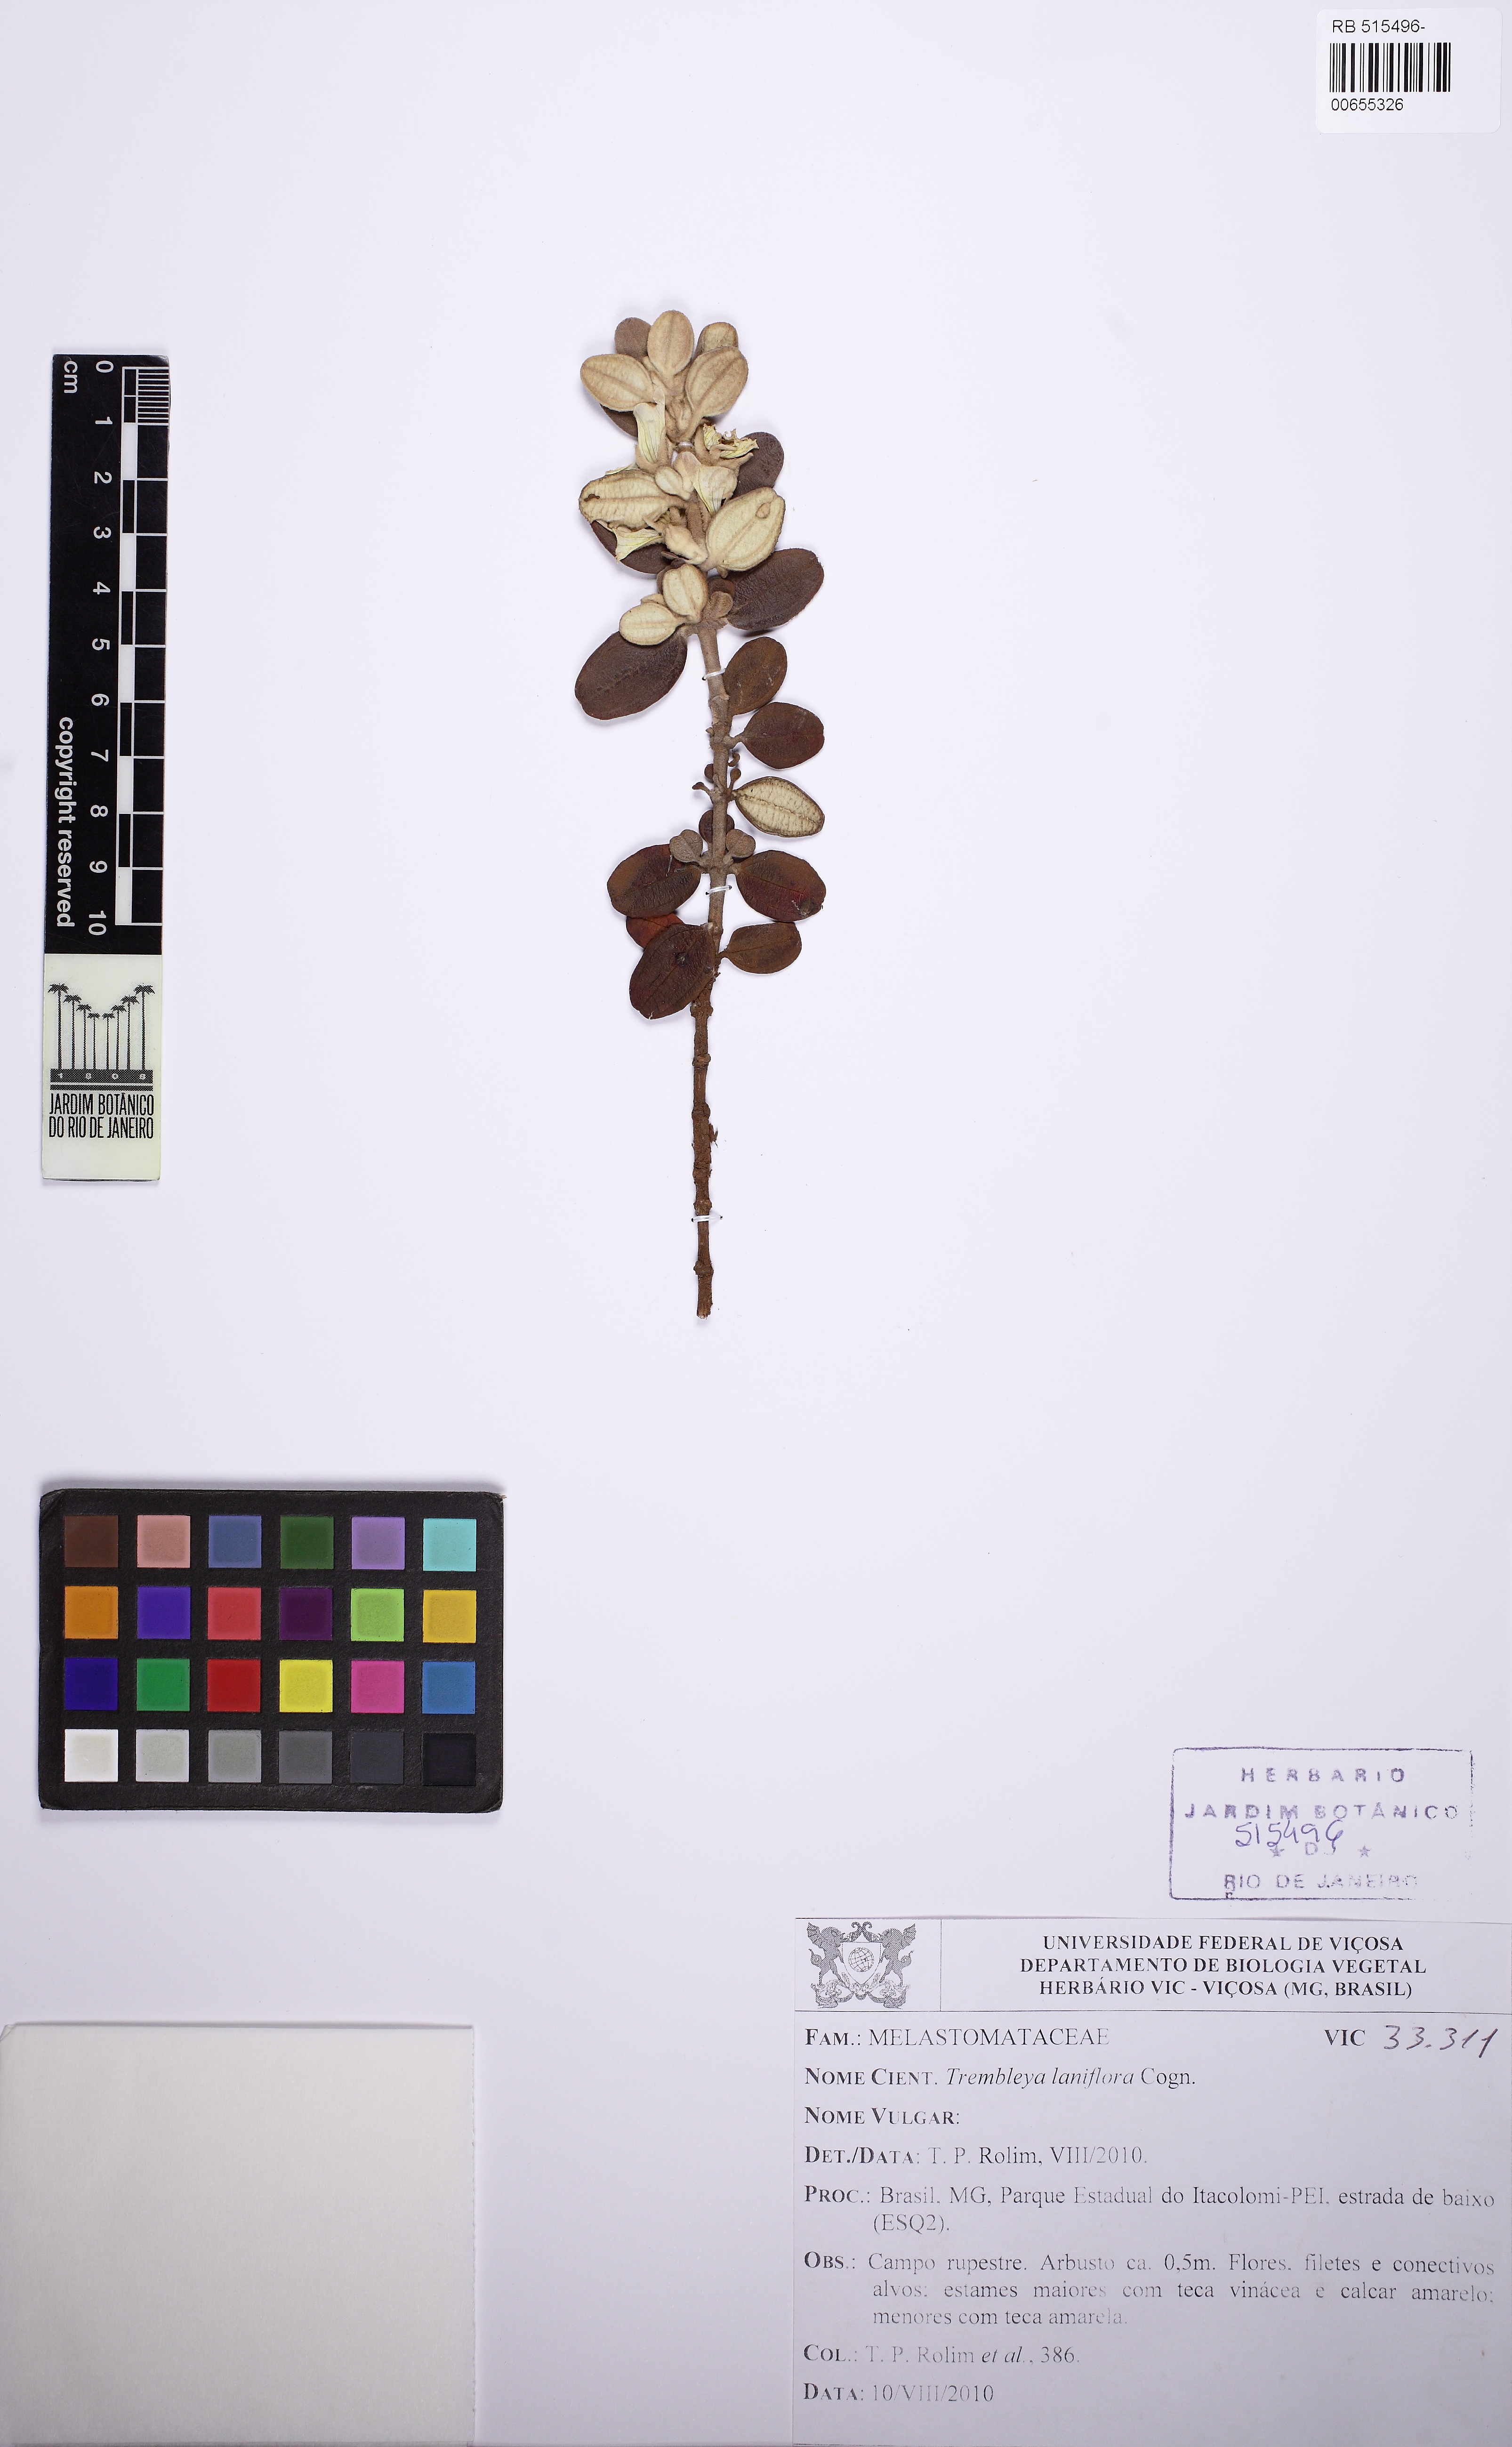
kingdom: Plantae
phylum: Tracheophyta
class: Magnoliopsida
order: Myrtales
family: Melastomataceae
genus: Microlicia
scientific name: Microlicia laniflora
